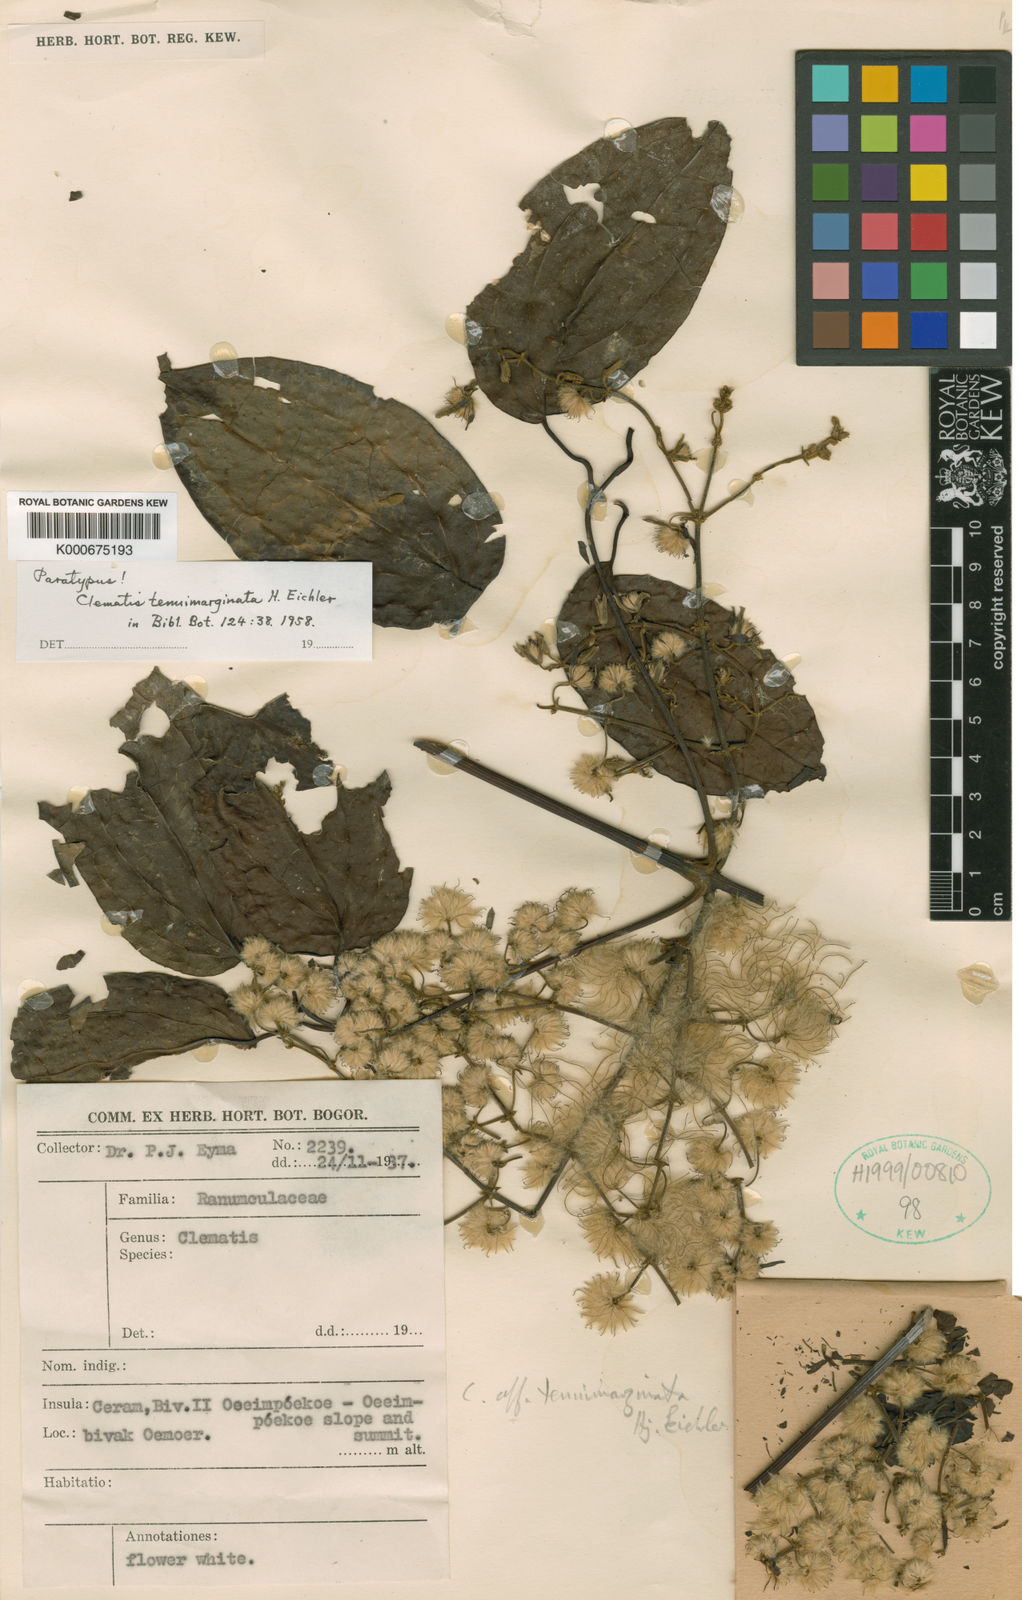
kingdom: Plantae
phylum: Tracheophyta
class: Magnoliopsida
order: Ranunculales
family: Ranunculaceae
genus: Clematis
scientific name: Clematis tenuimarginata
